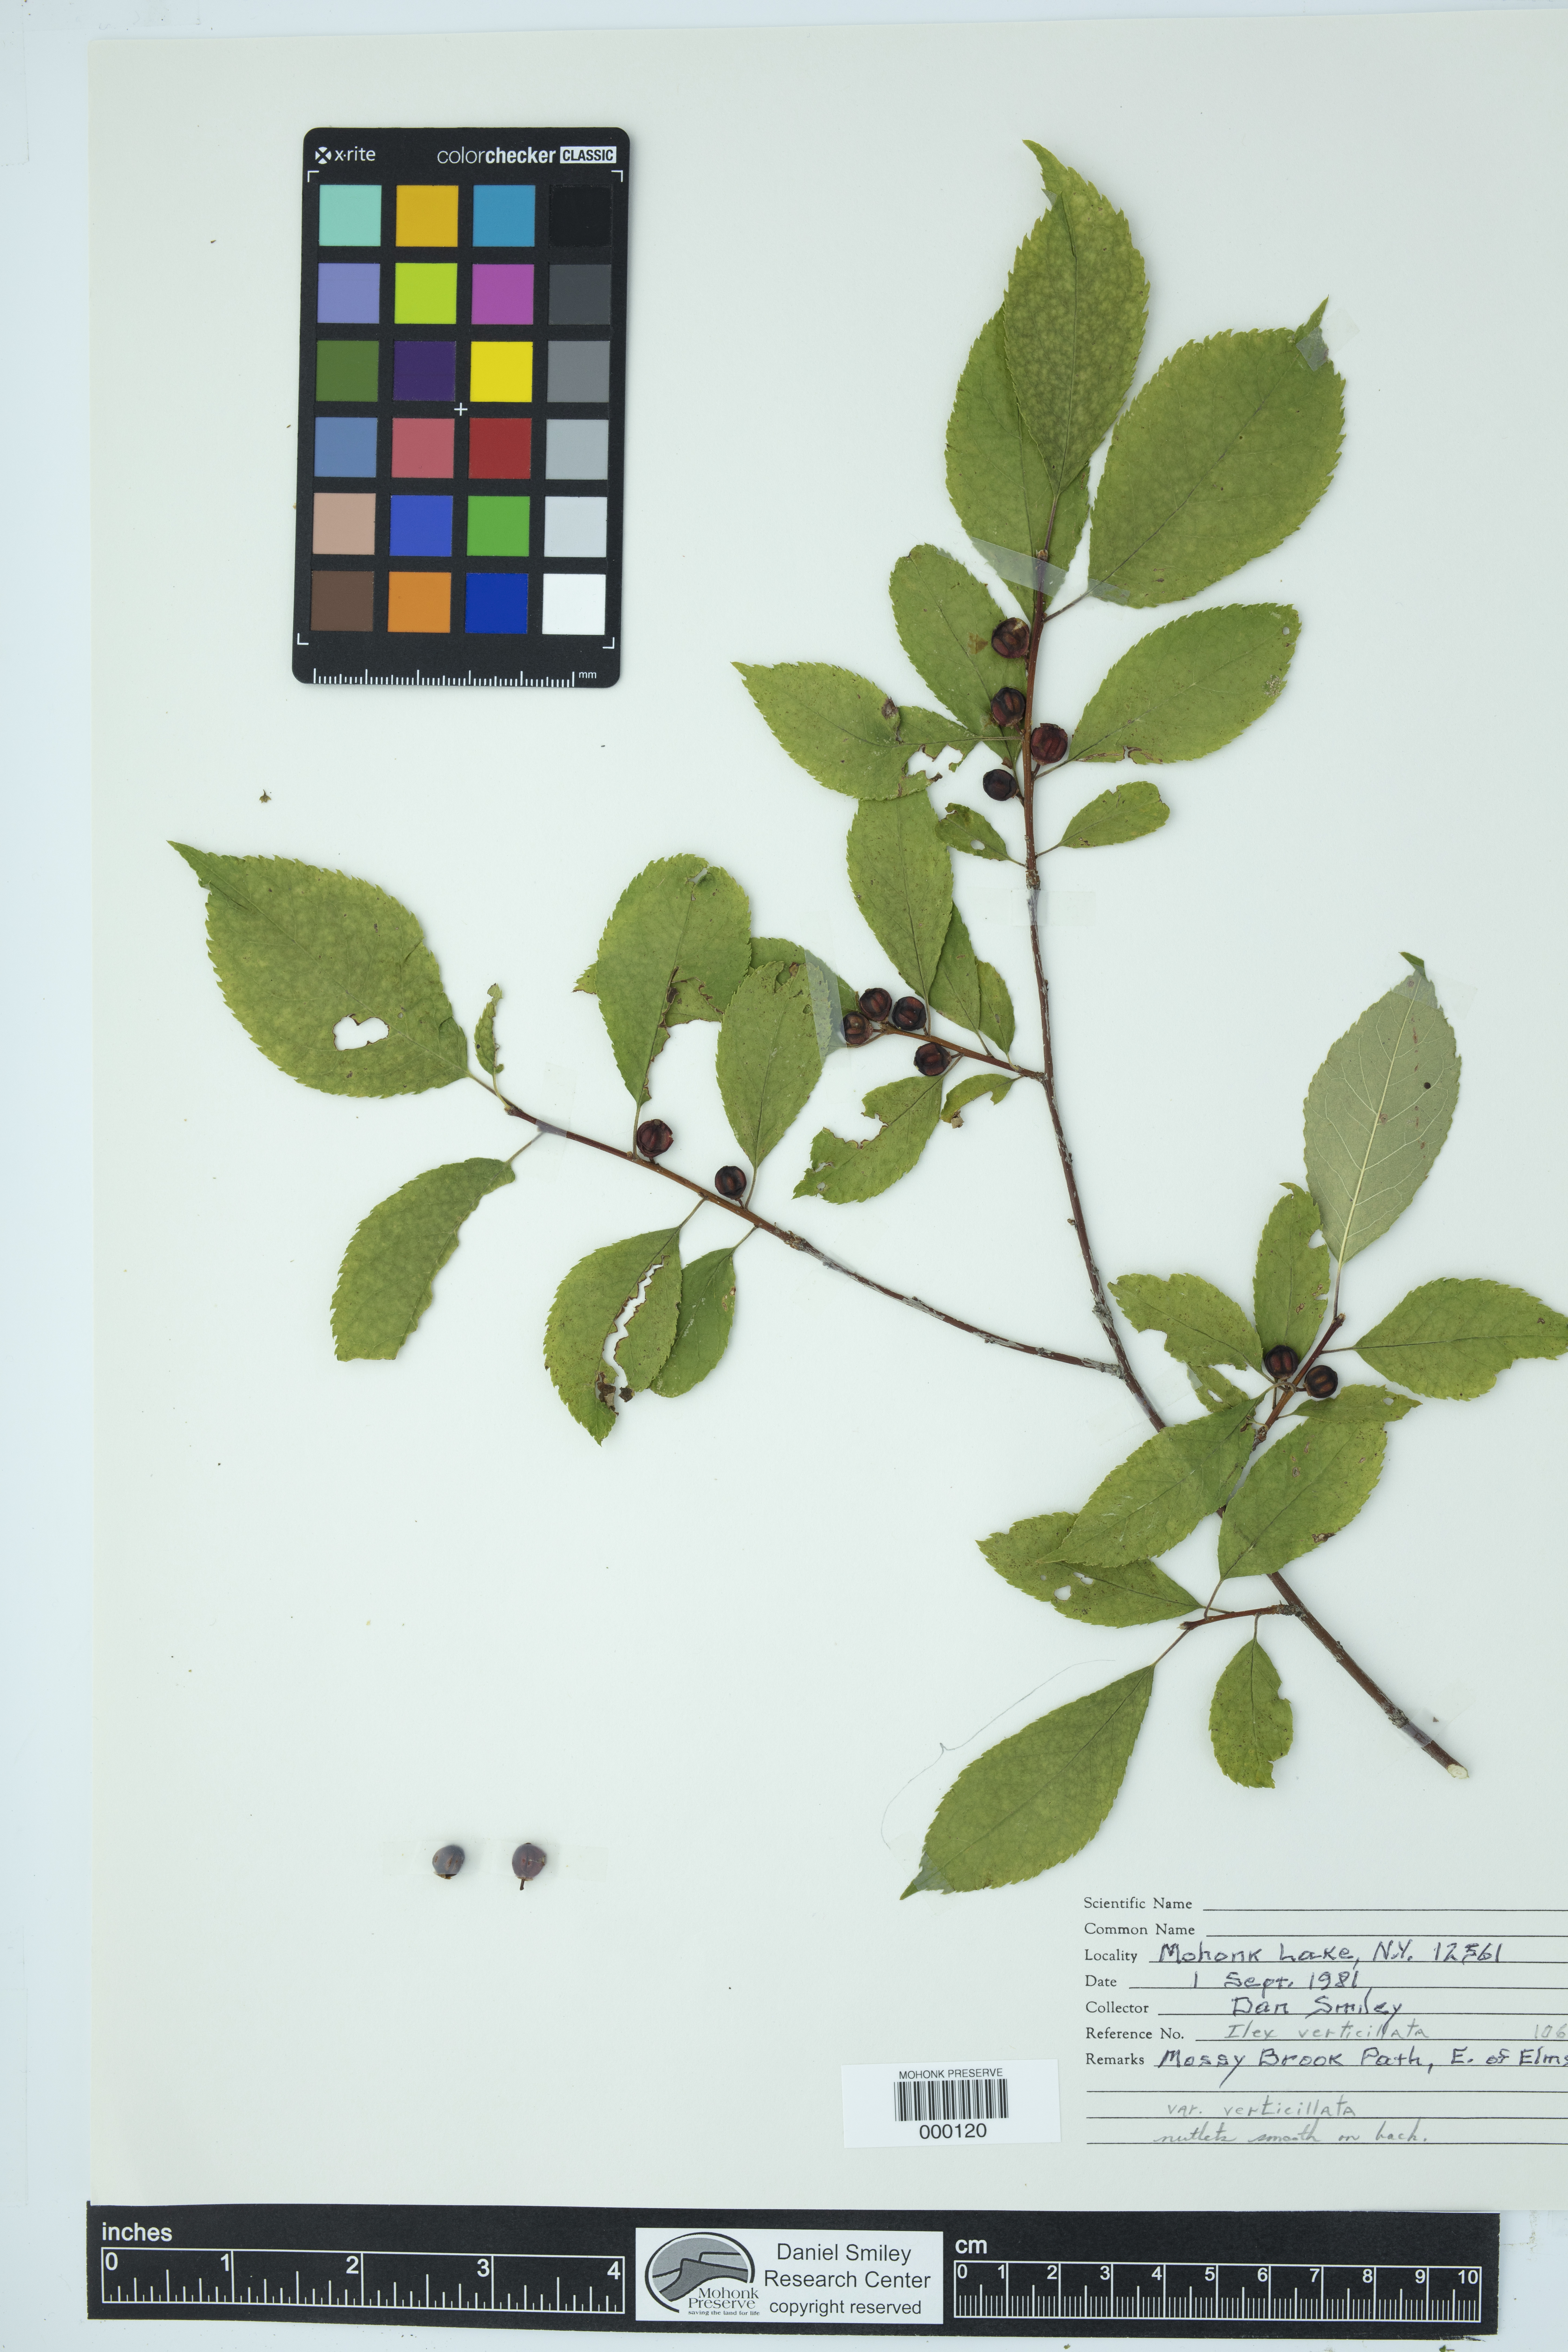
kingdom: Plantae
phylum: Tracheophyta
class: Magnoliopsida
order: Aquifoliales
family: Aquifoliaceae
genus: Ilex
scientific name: Ilex verticillata
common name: Virginia winterberry
